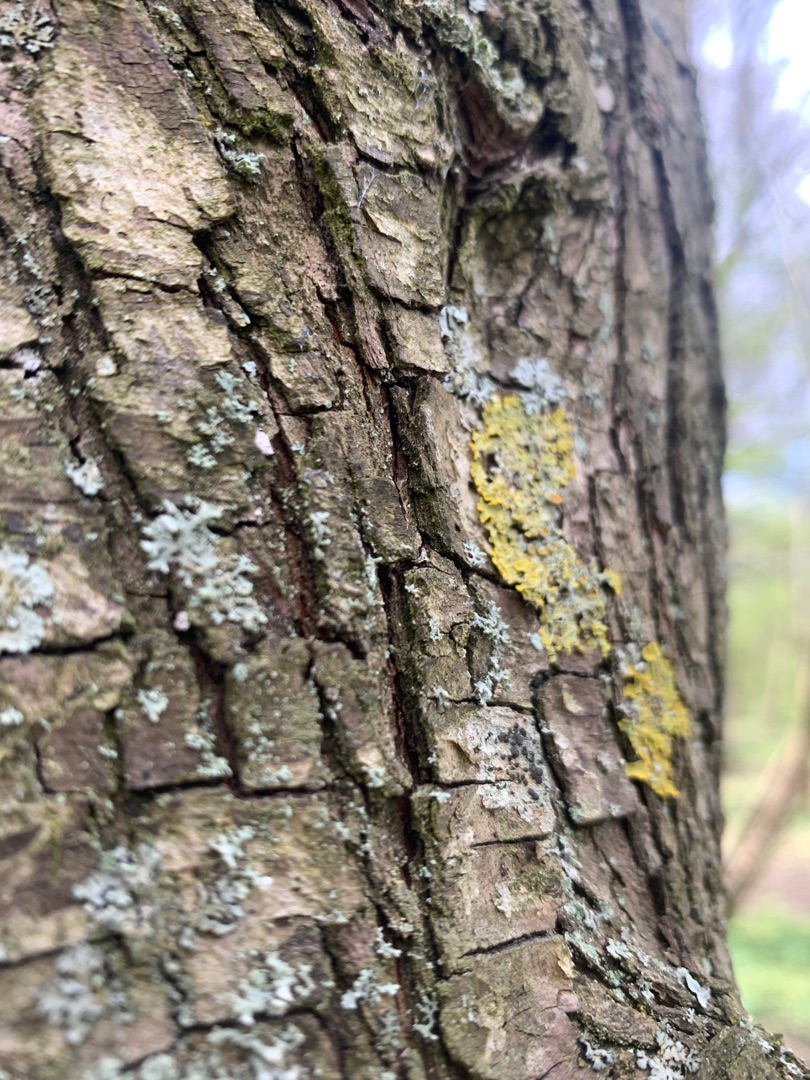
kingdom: Fungi
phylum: Ascomycota
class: Lecanoromycetes
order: Teloschistales
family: Teloschistaceae
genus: Xanthoria
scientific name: Xanthoria parietina
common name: Almindelig væggelav
